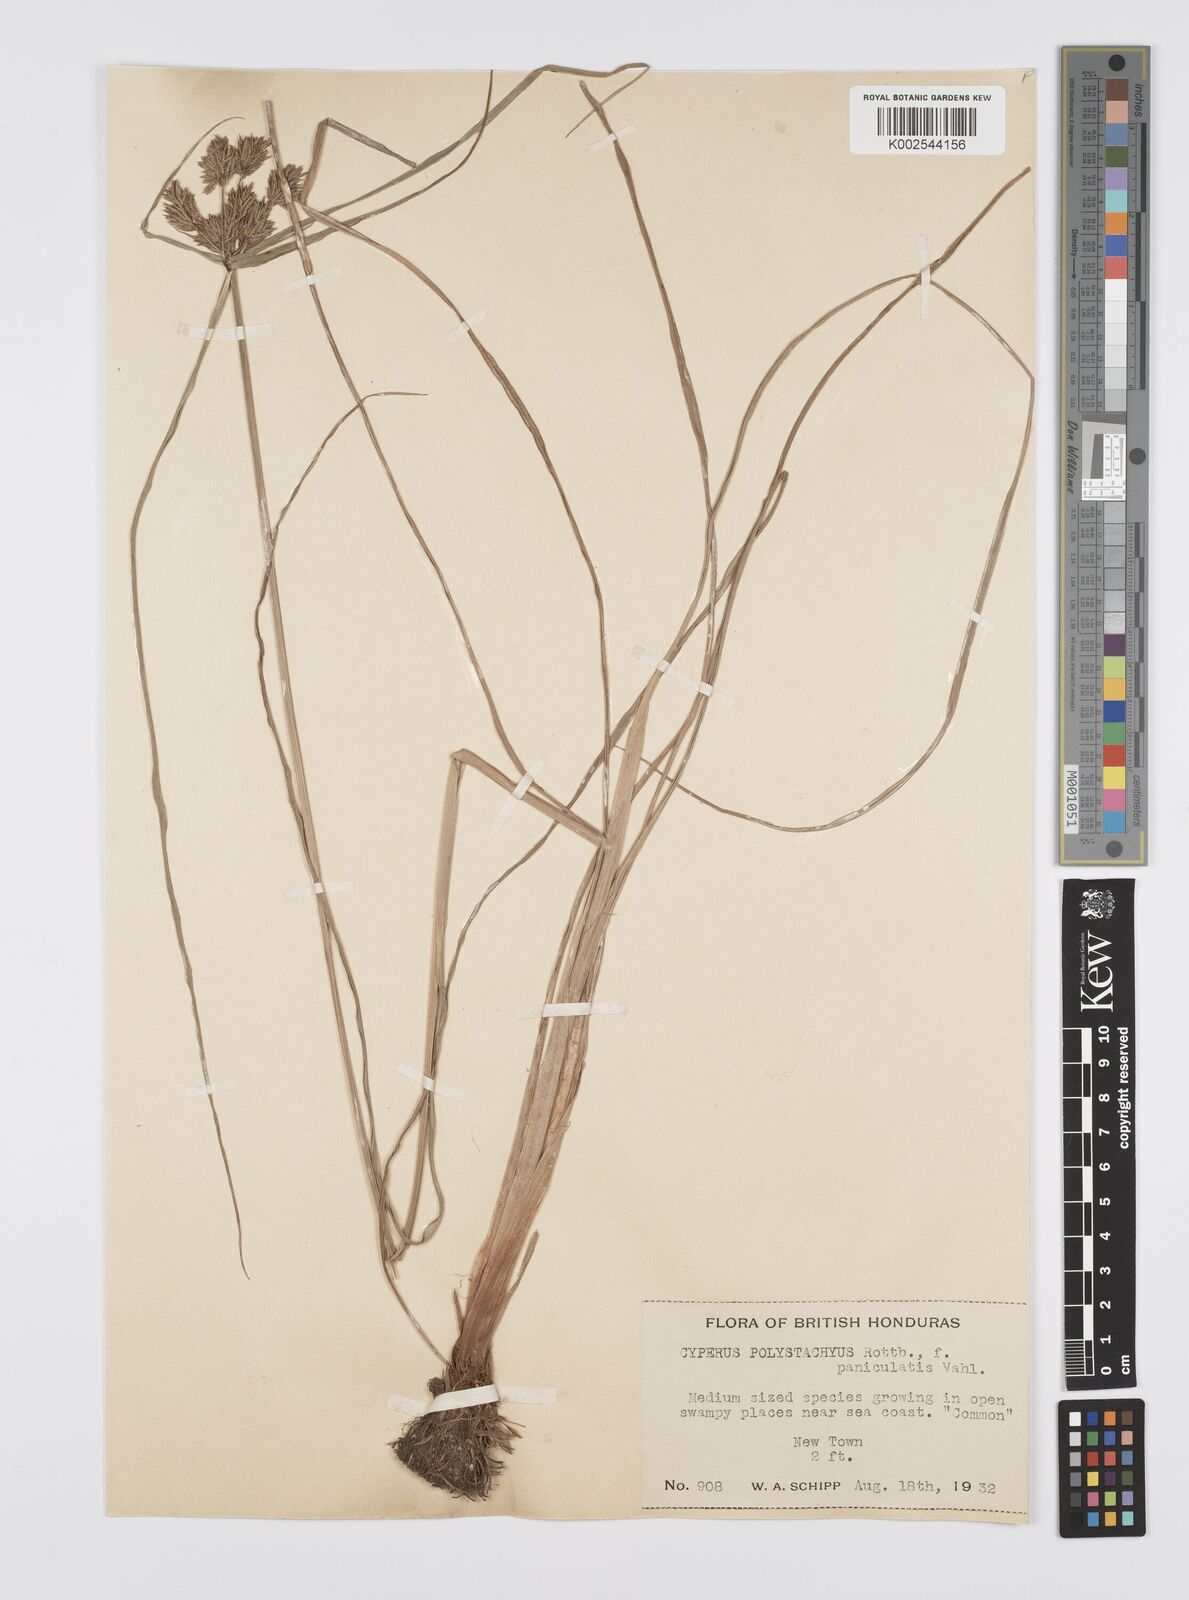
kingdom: Plantae
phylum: Tracheophyta
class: Liliopsida
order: Poales
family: Cyperaceae
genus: Cyperus
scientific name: Cyperus polystachyos
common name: Bunchy flat sedge
